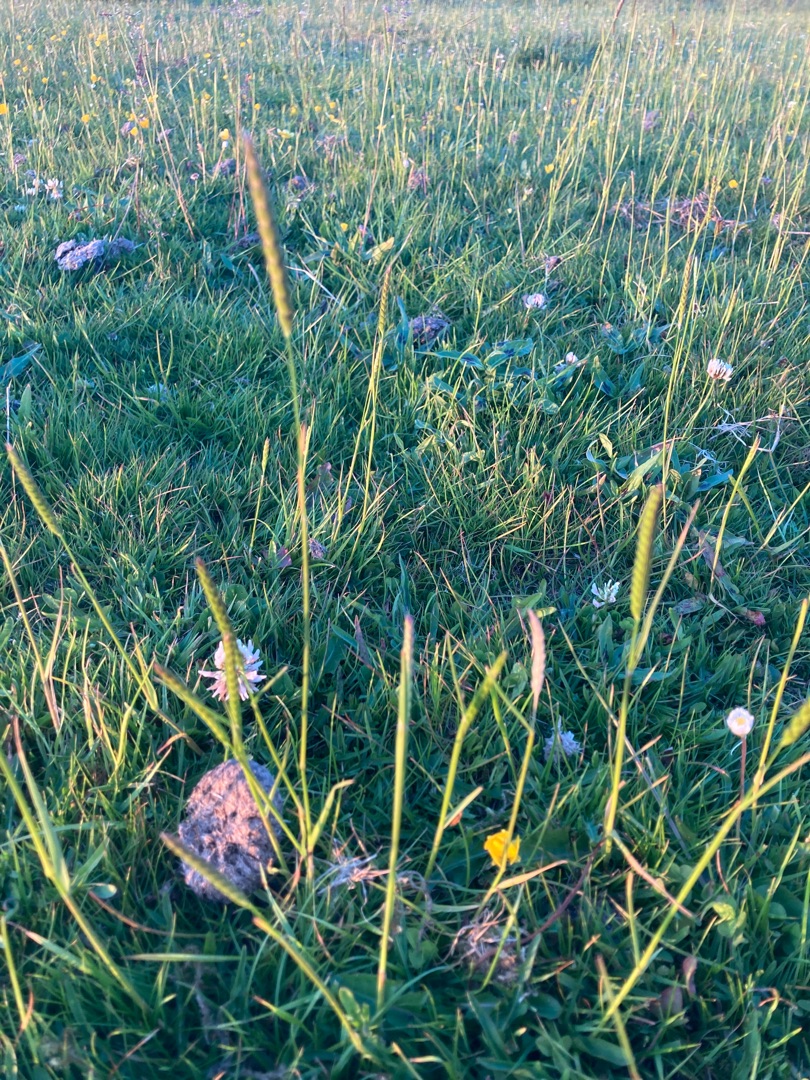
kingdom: Plantae
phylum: Tracheophyta
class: Liliopsida
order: Poales
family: Poaceae
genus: Cynosurus
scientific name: Cynosurus cristatus
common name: Kamgræs
